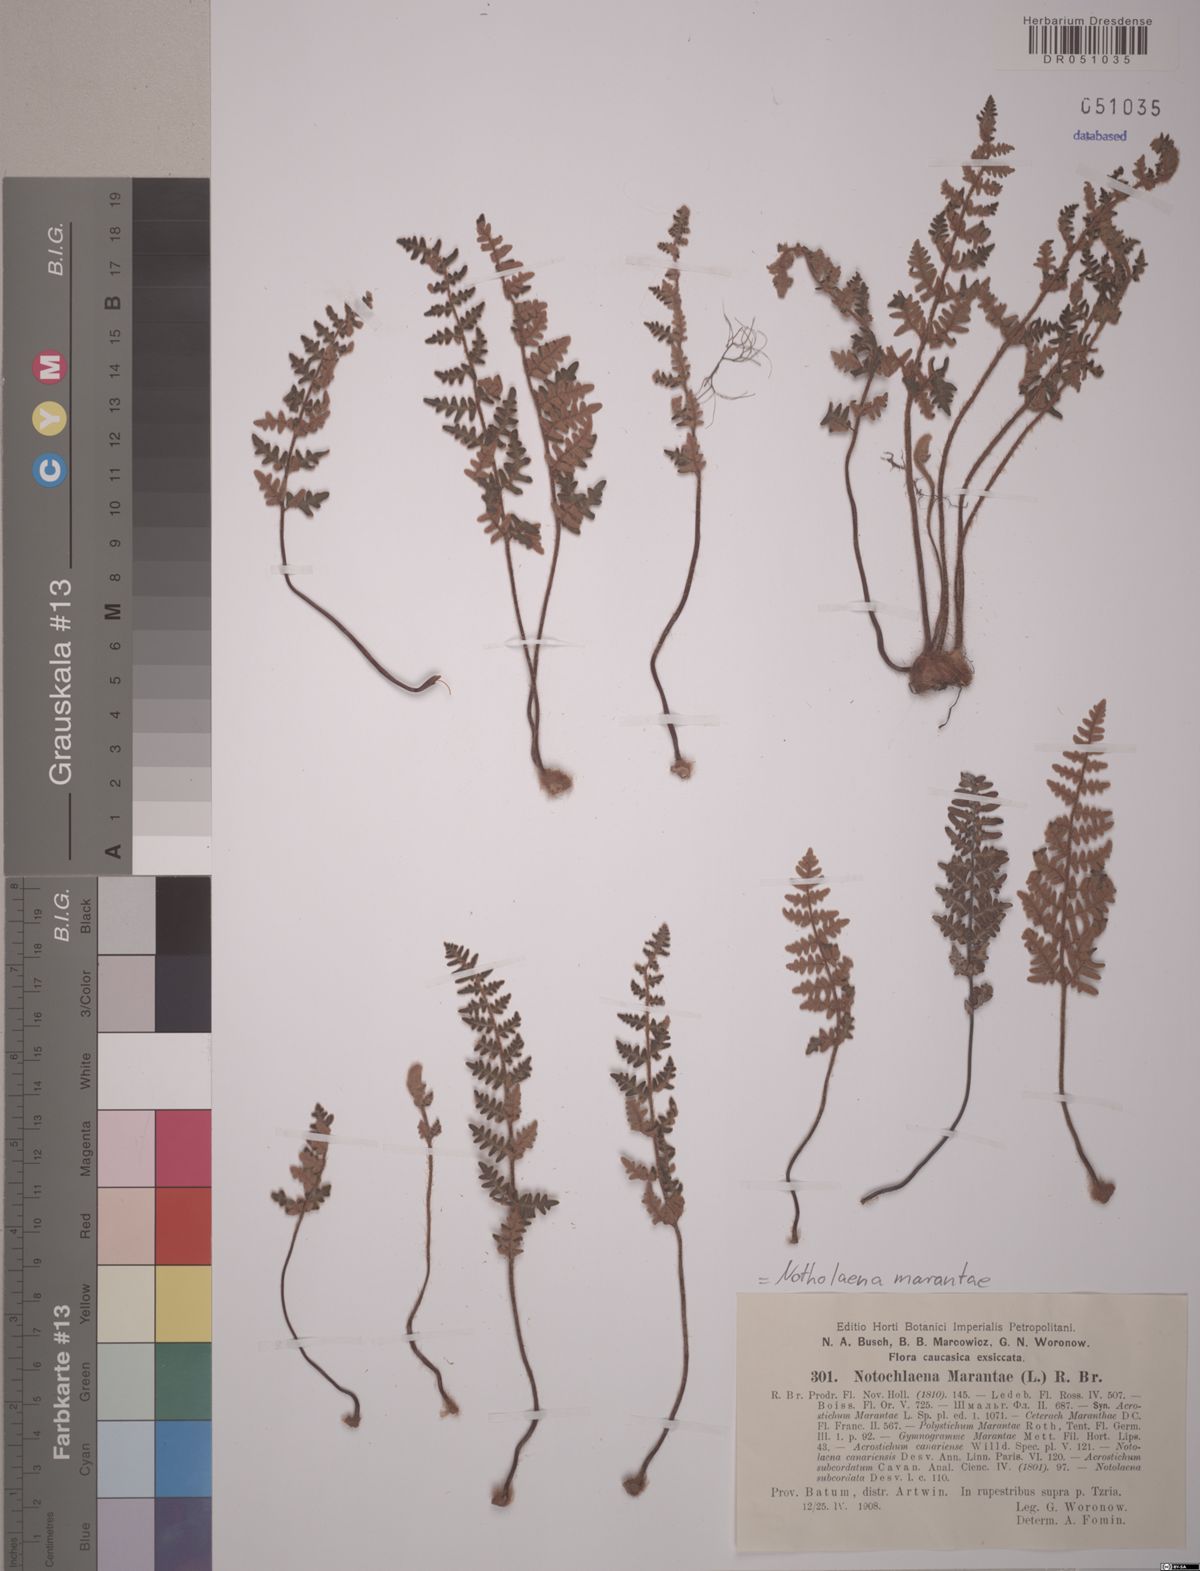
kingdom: Plantae
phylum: Tracheophyta
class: Polypodiopsida
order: Polypodiales
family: Pteridaceae
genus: Paragymnopteris
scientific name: Paragymnopteris marantae
